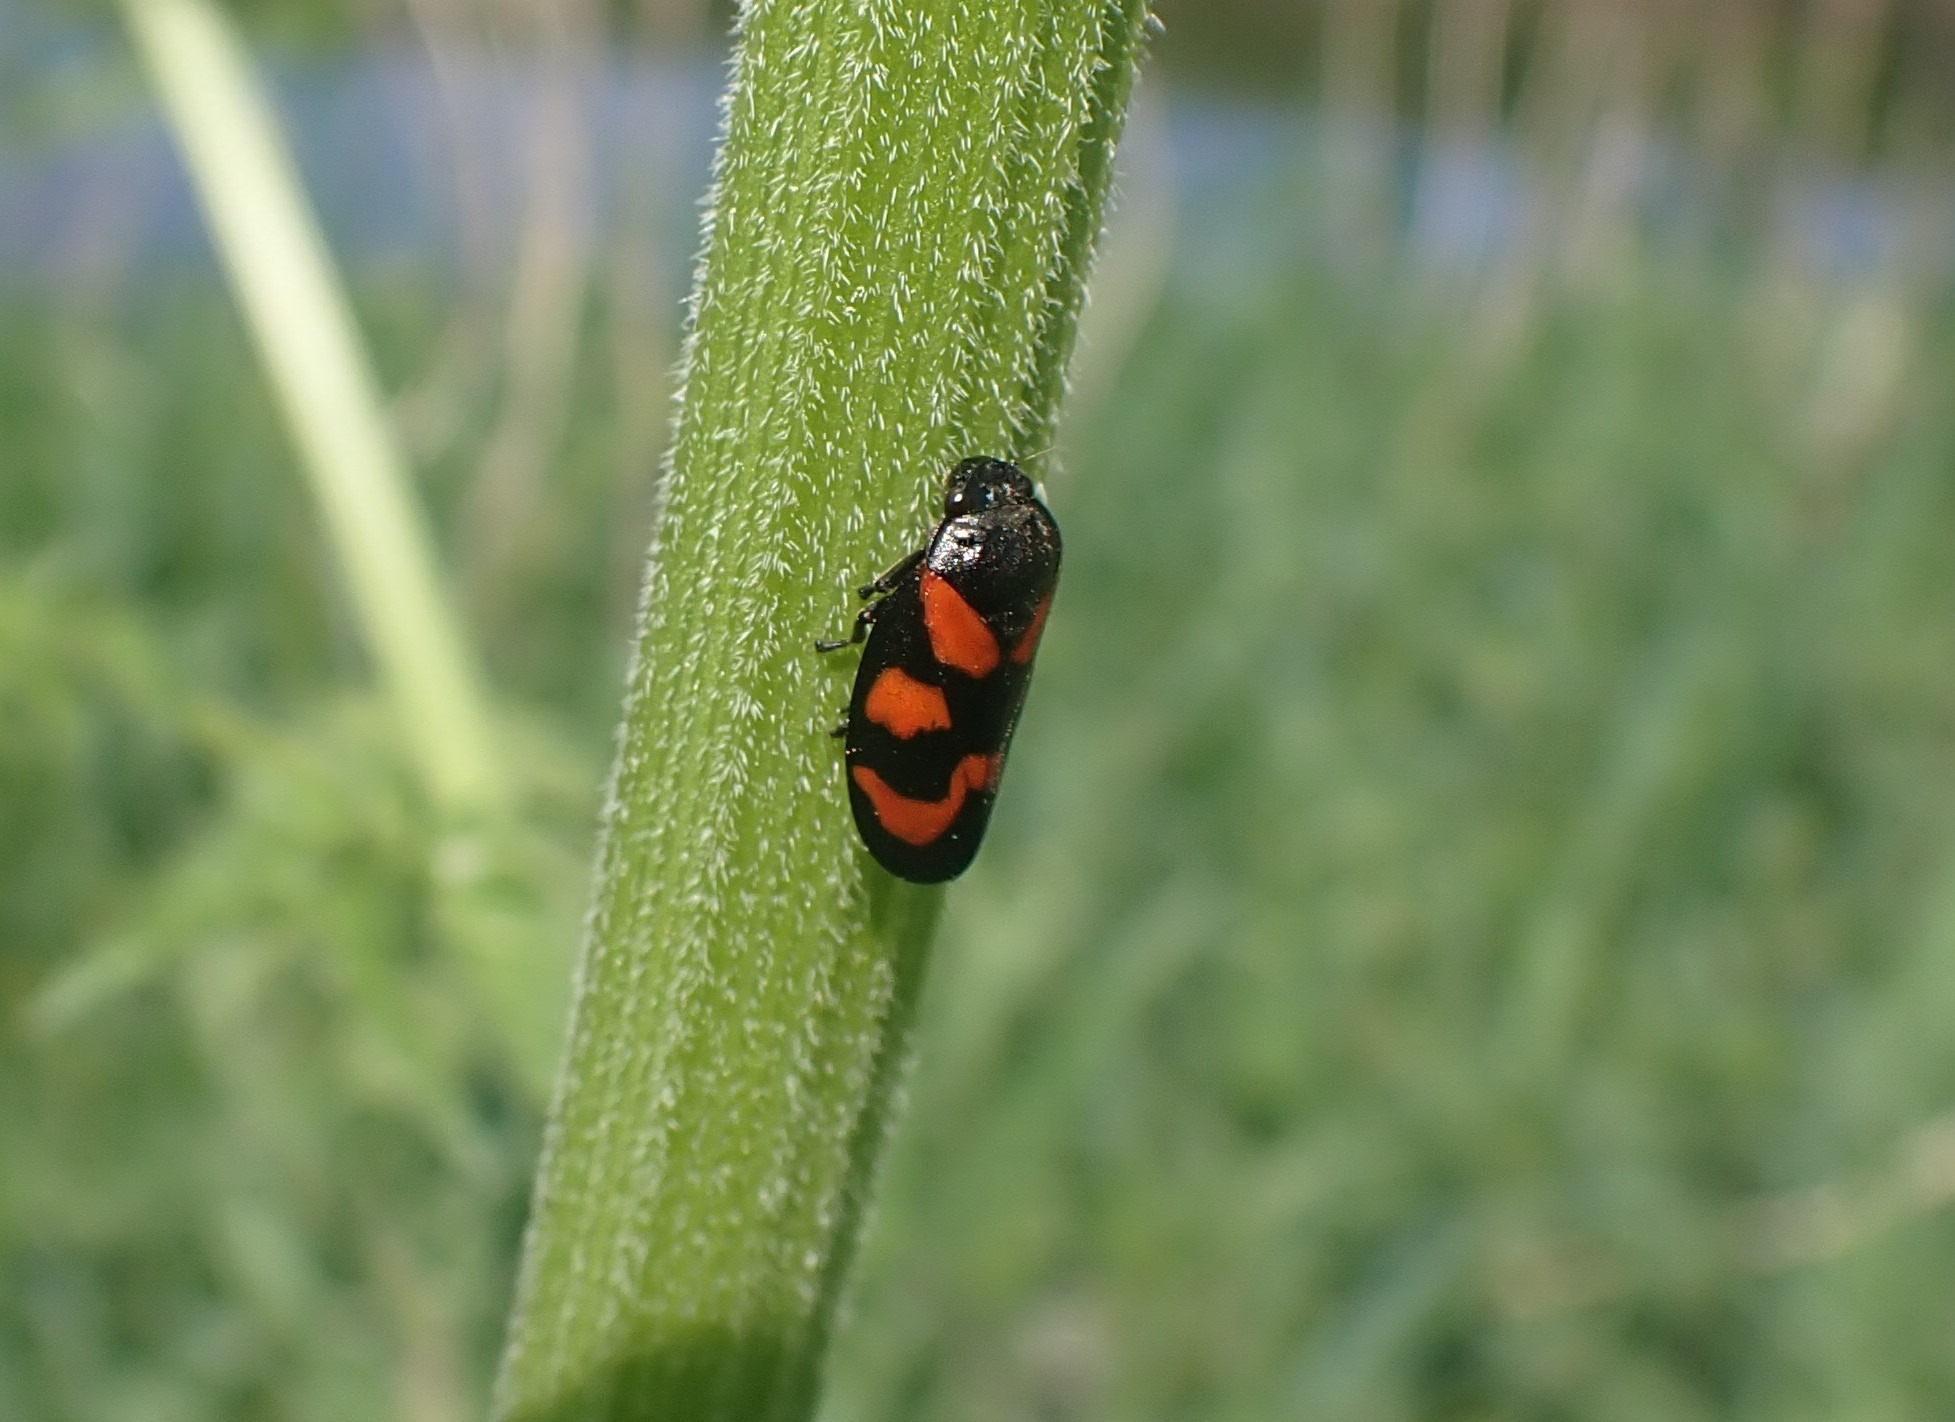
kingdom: Animalia
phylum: Arthropoda
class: Insecta
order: Hemiptera
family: Cercopidae
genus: Cercopis
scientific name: Cercopis vulnerata
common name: Blodcikade
